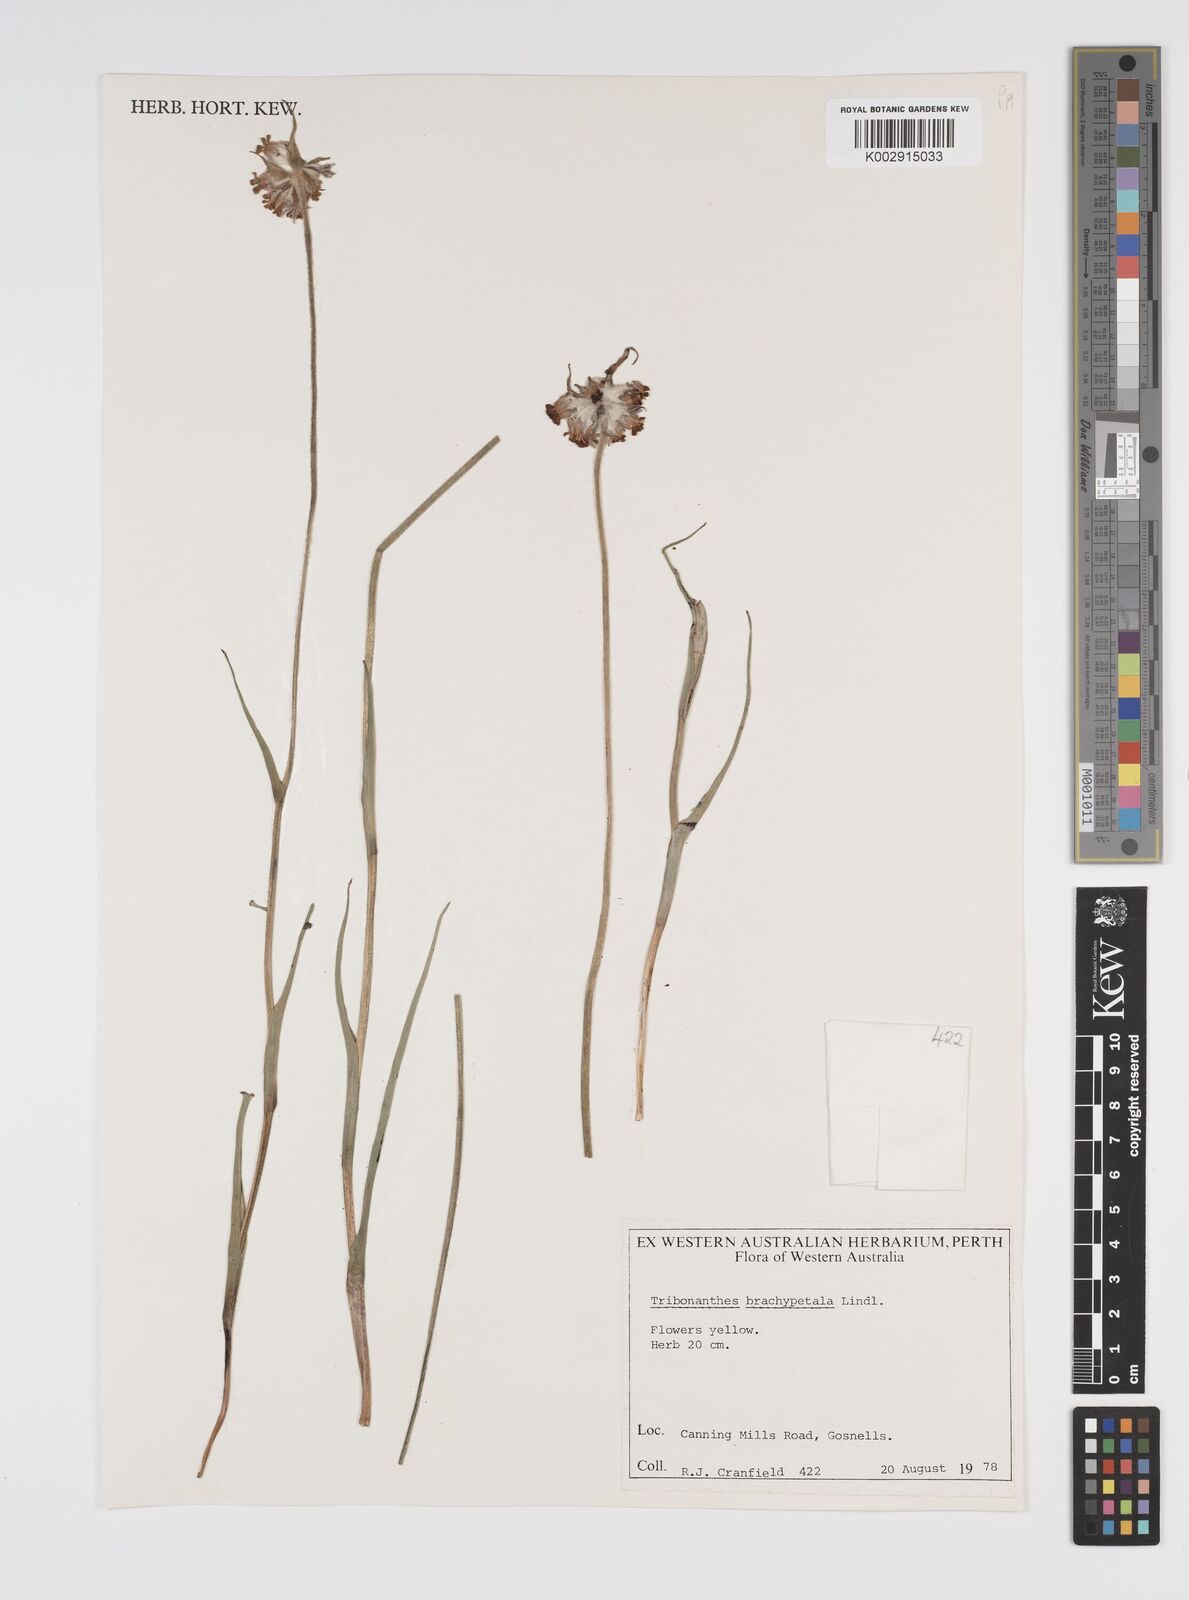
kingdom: Plantae
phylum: Tracheophyta
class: Liliopsida
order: Commelinales
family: Haemodoraceae
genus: Tribonanthes
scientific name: Tribonanthes brachypetala
